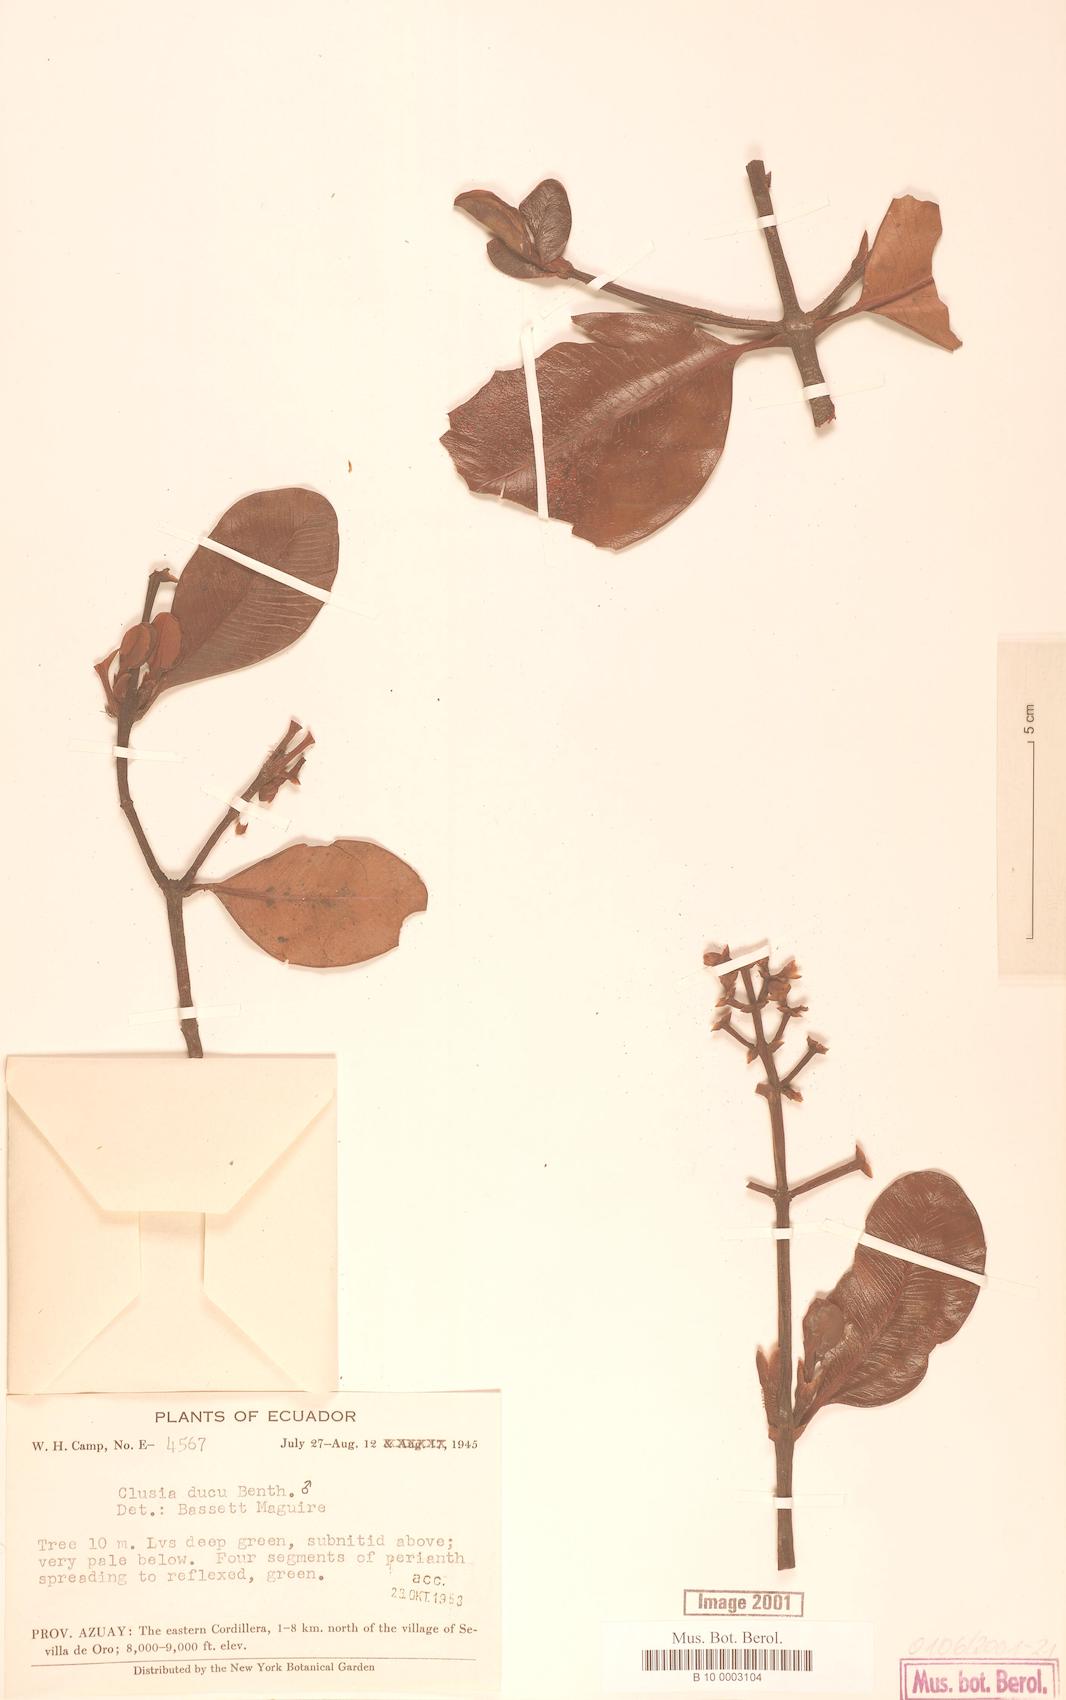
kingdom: Plantae
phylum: Tracheophyta
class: Magnoliopsida
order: Malpighiales
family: Clusiaceae
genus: Clusia
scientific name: Clusia ducu
